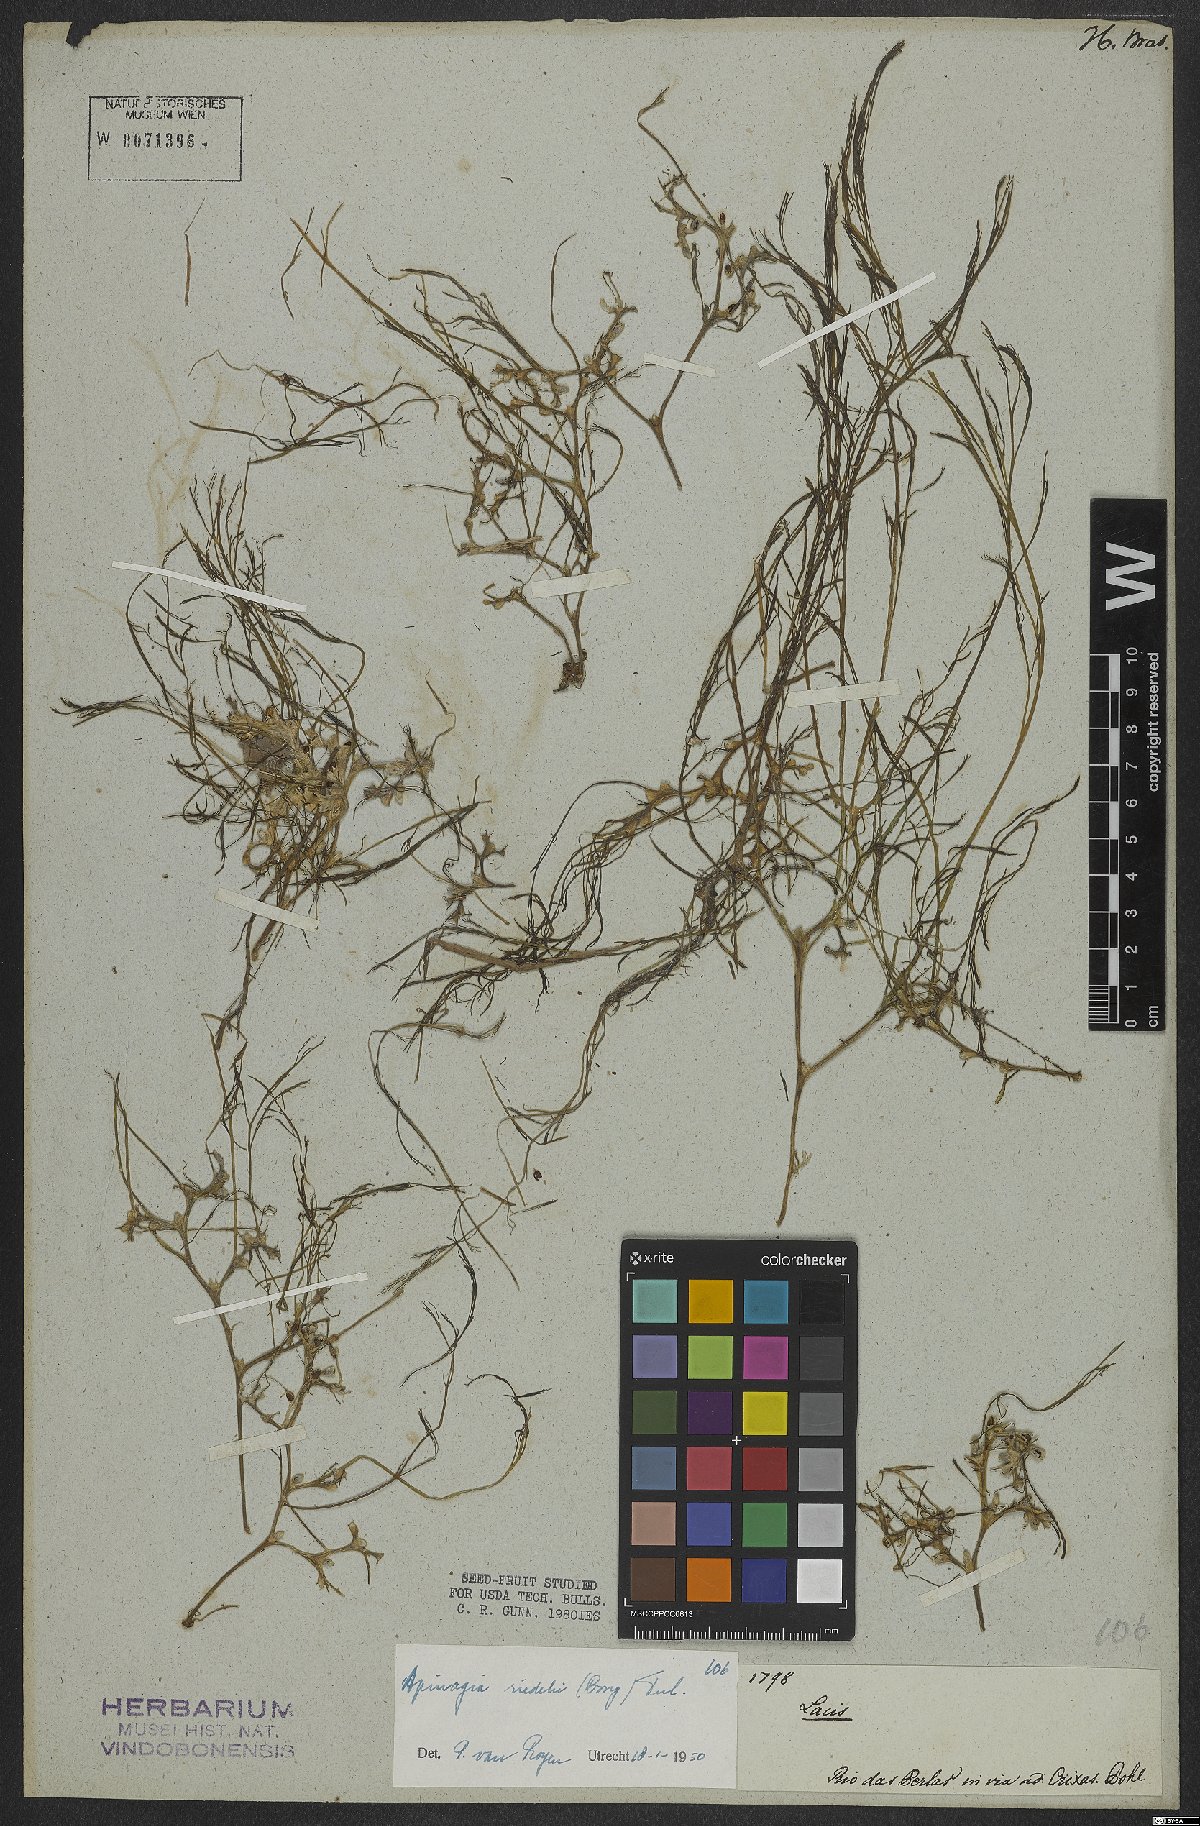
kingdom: Plantae
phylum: Tracheophyta
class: Magnoliopsida
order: Malpighiales
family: Podostemaceae
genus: Apinagia
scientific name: Apinagia riedelii
